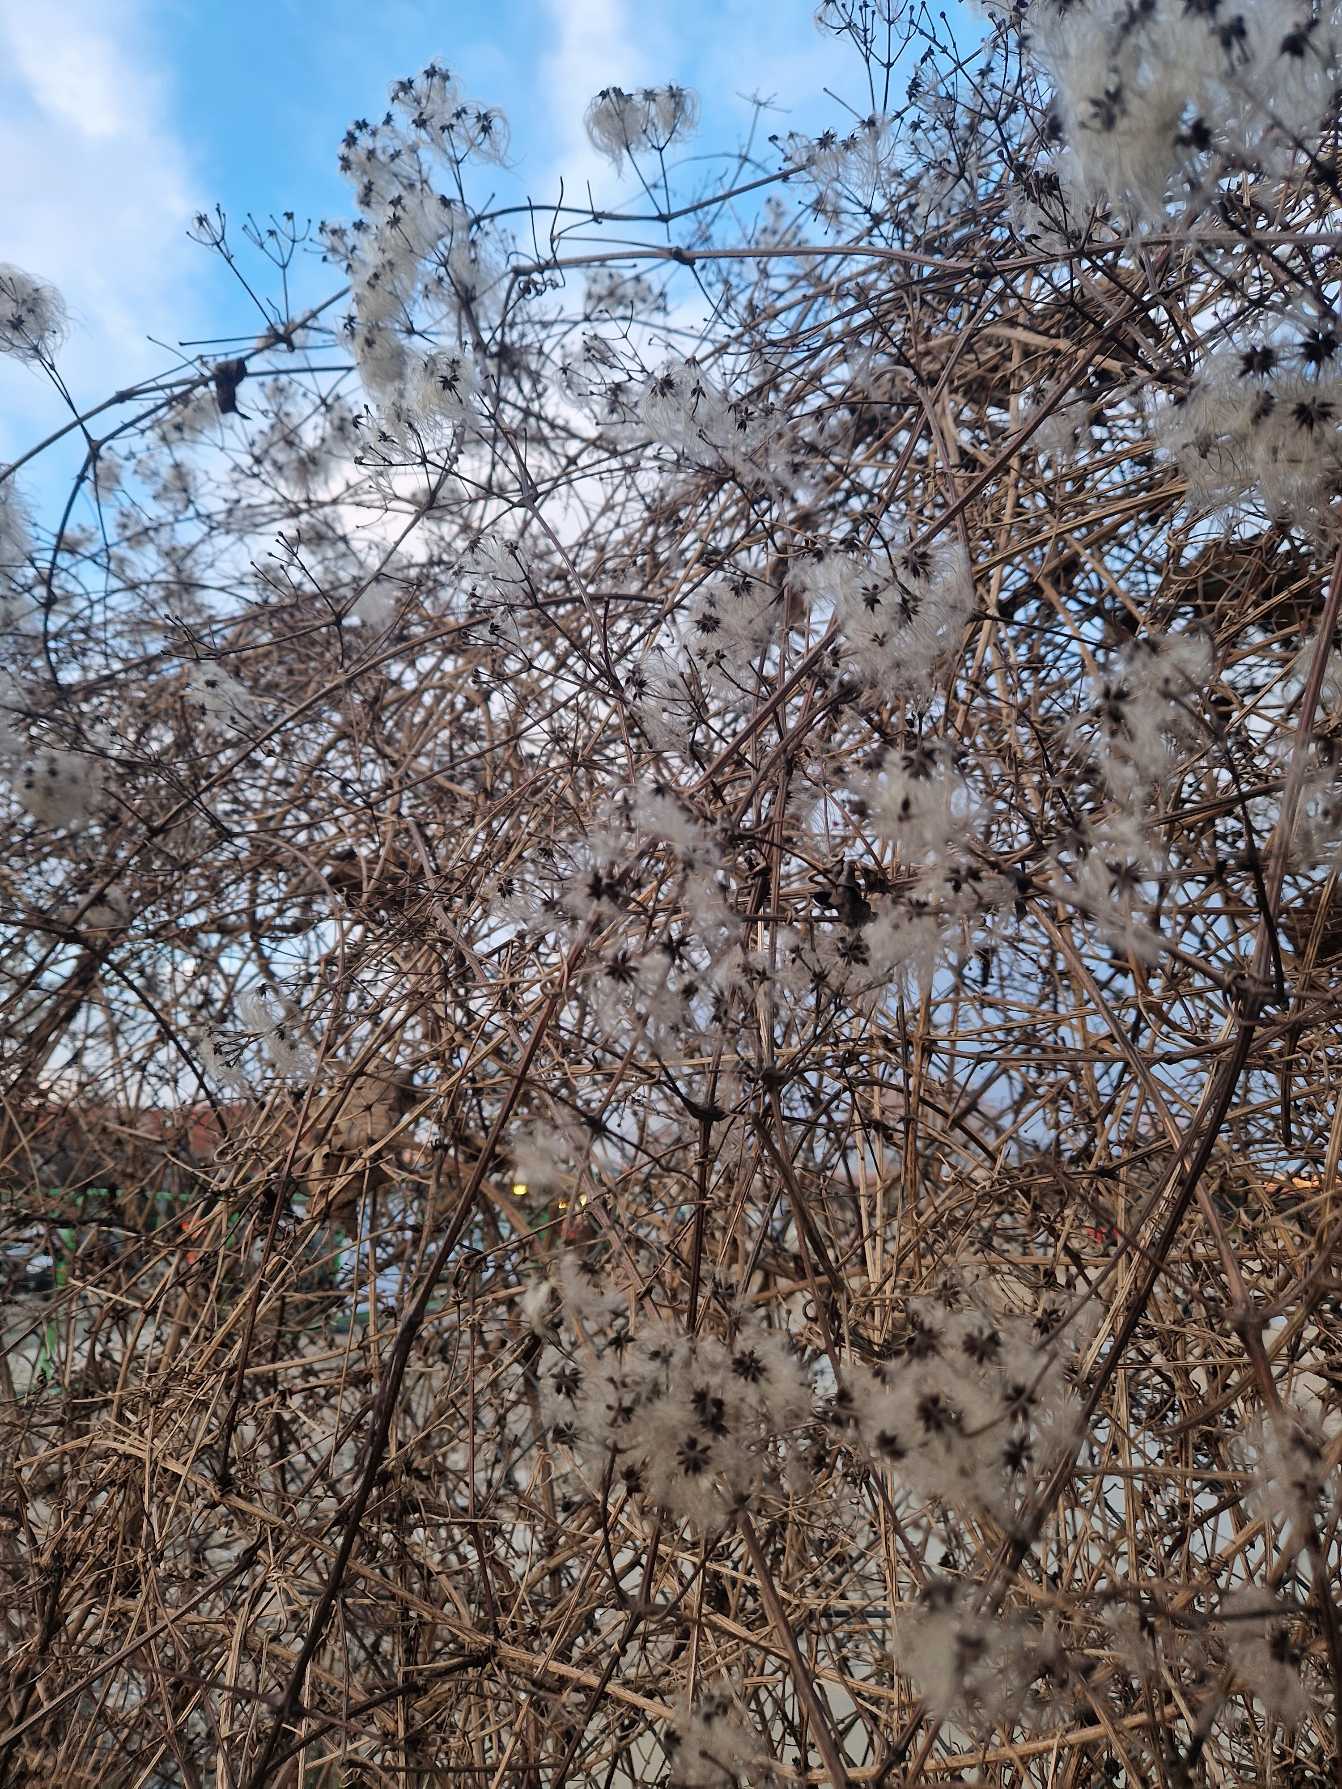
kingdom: Plantae
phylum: Tracheophyta
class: Magnoliopsida
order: Ranunculales
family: Ranunculaceae
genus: Clematis
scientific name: Clematis vitalba
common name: Skovranke
